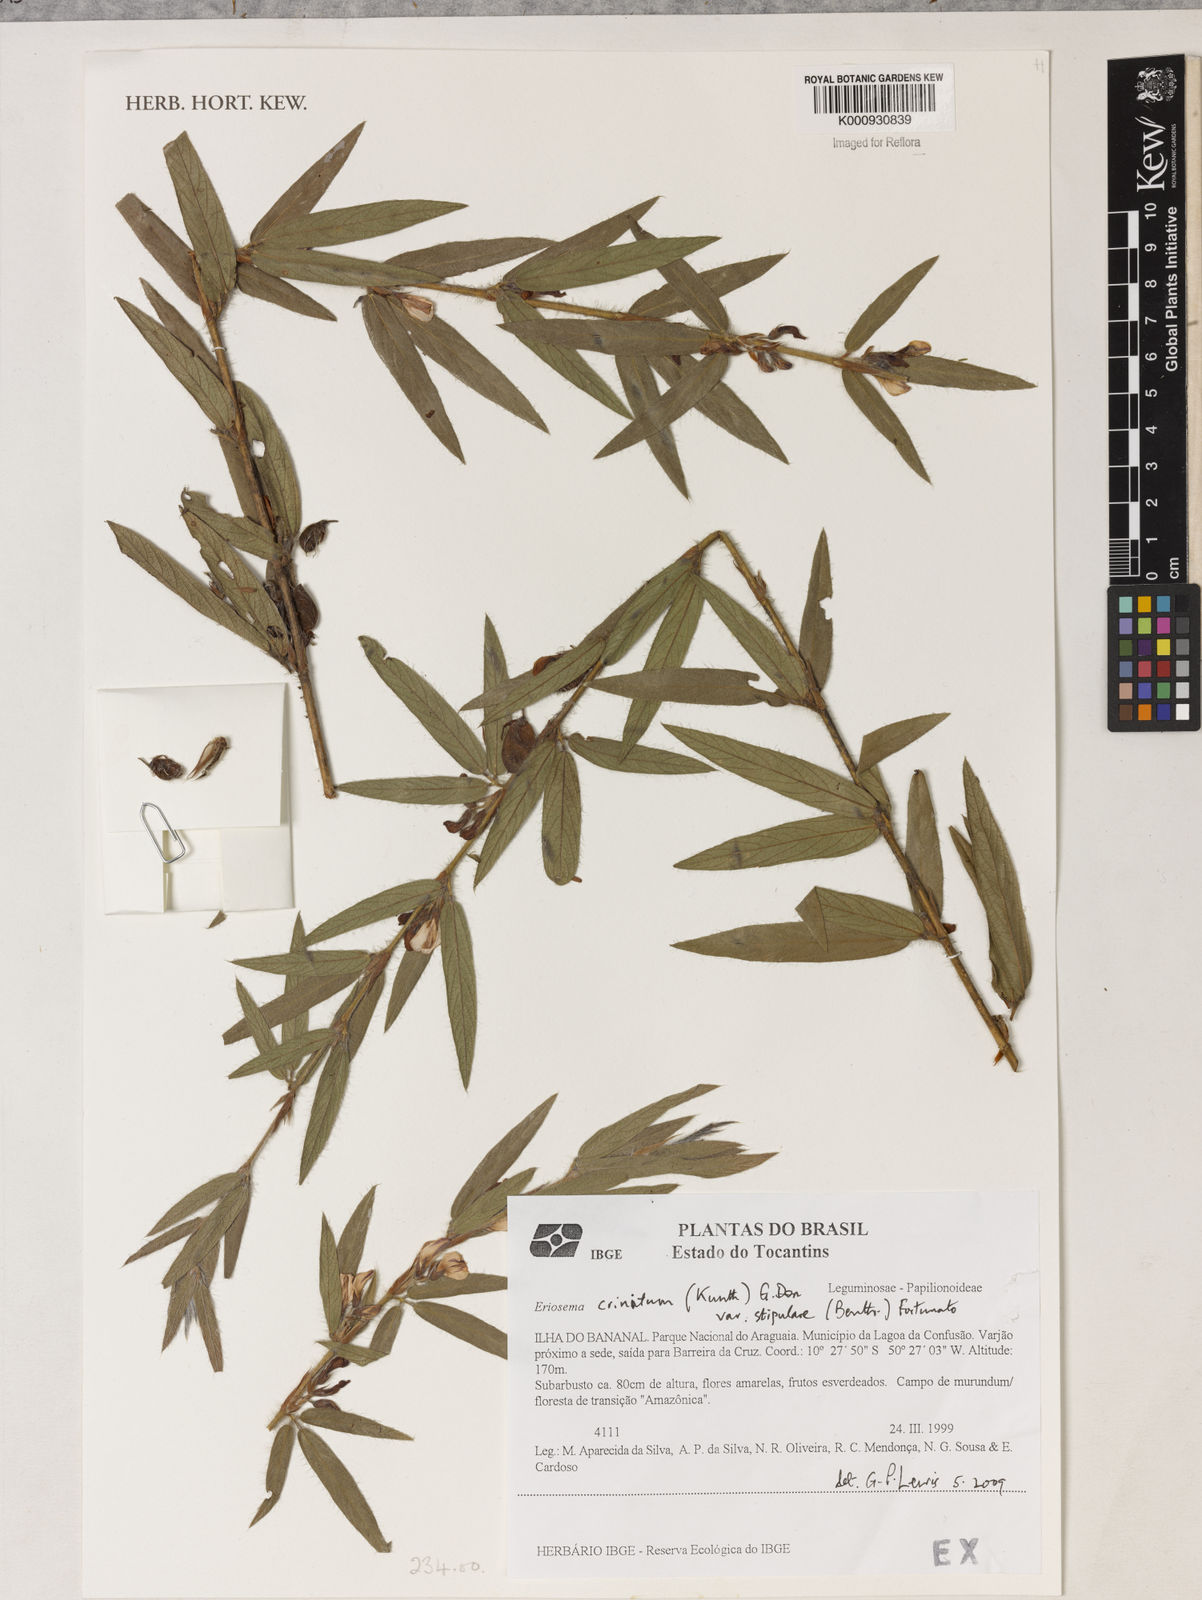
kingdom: Plantae
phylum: Tracheophyta
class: Magnoliopsida
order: Fabales
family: Fabaceae
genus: Eriosema
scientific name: Eriosema crinitum
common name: Sand pea
